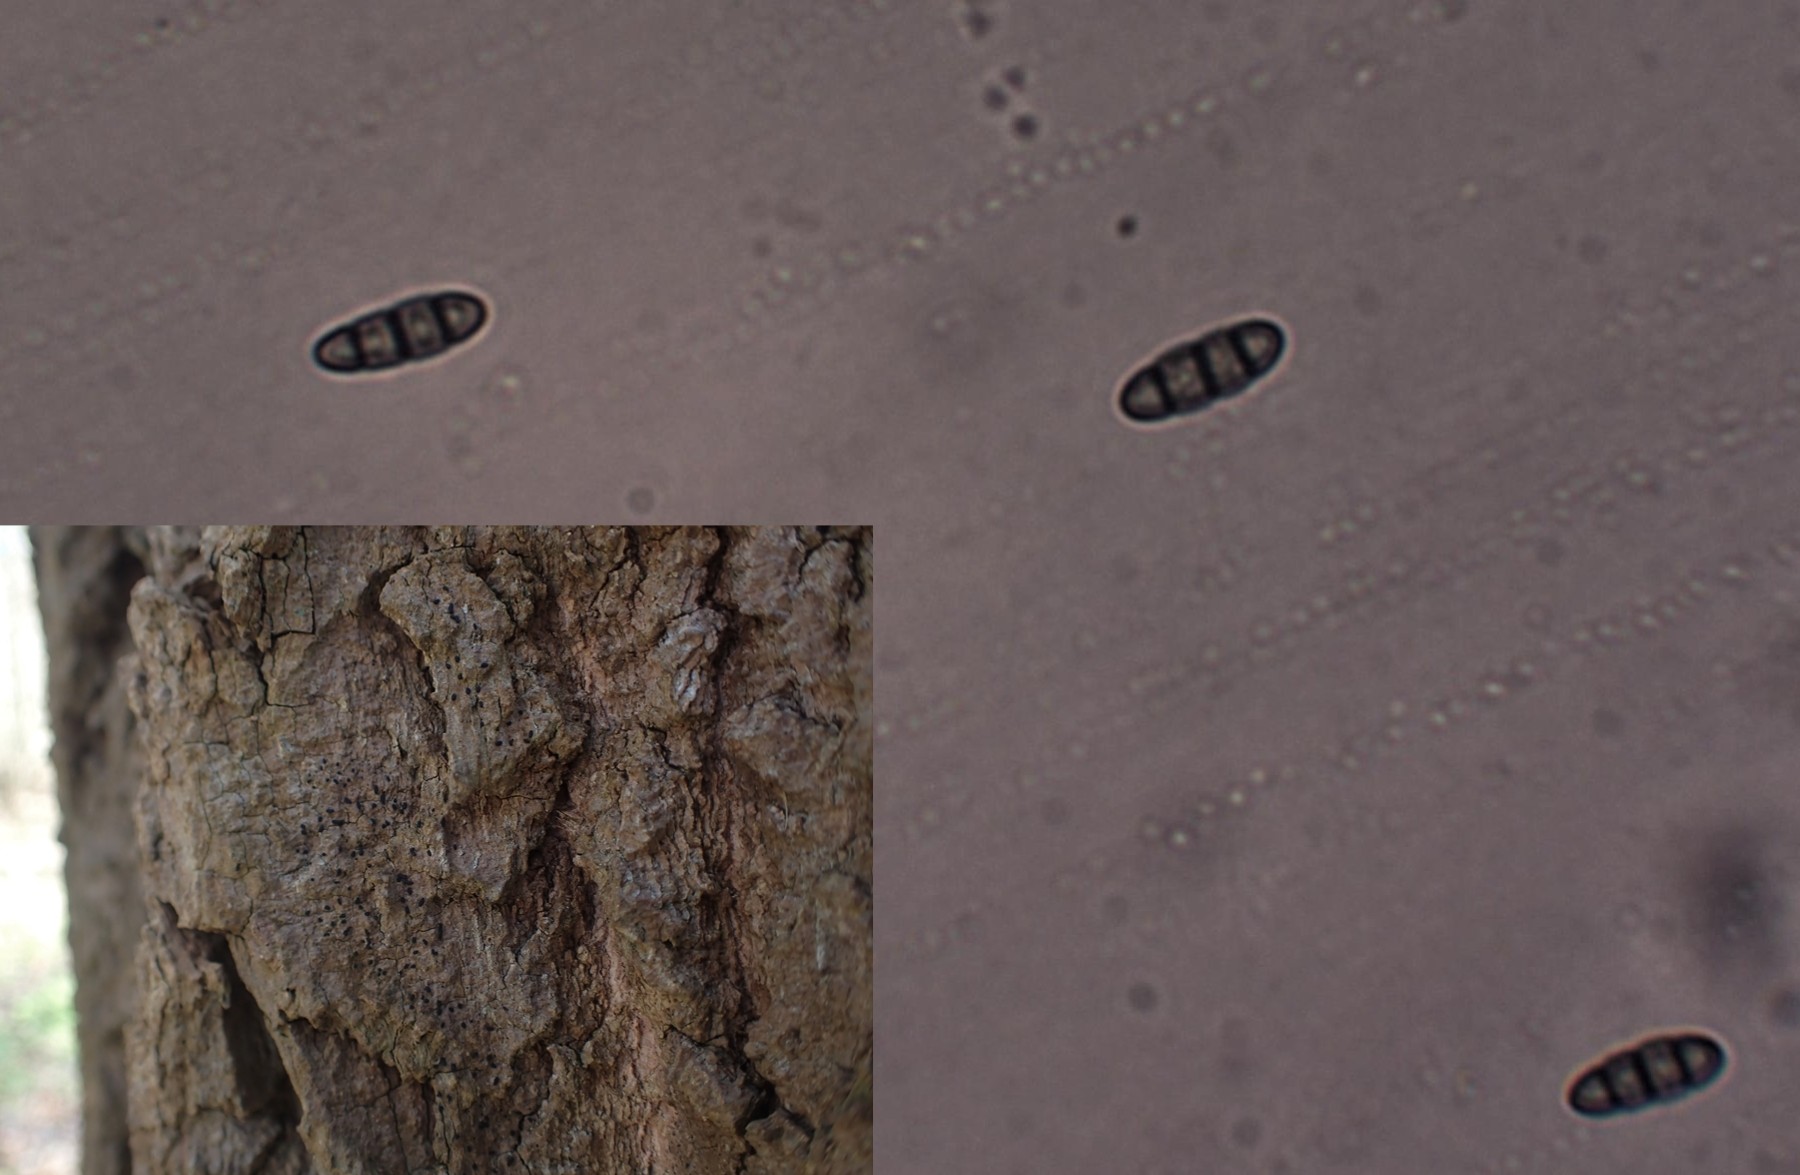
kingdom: Fungi
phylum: Ascomycota
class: Dothideomycetes
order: Hysteriales
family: Hysteriaceae
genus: Hysterium
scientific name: Hysterium acuminatum
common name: almindelig kulmund
